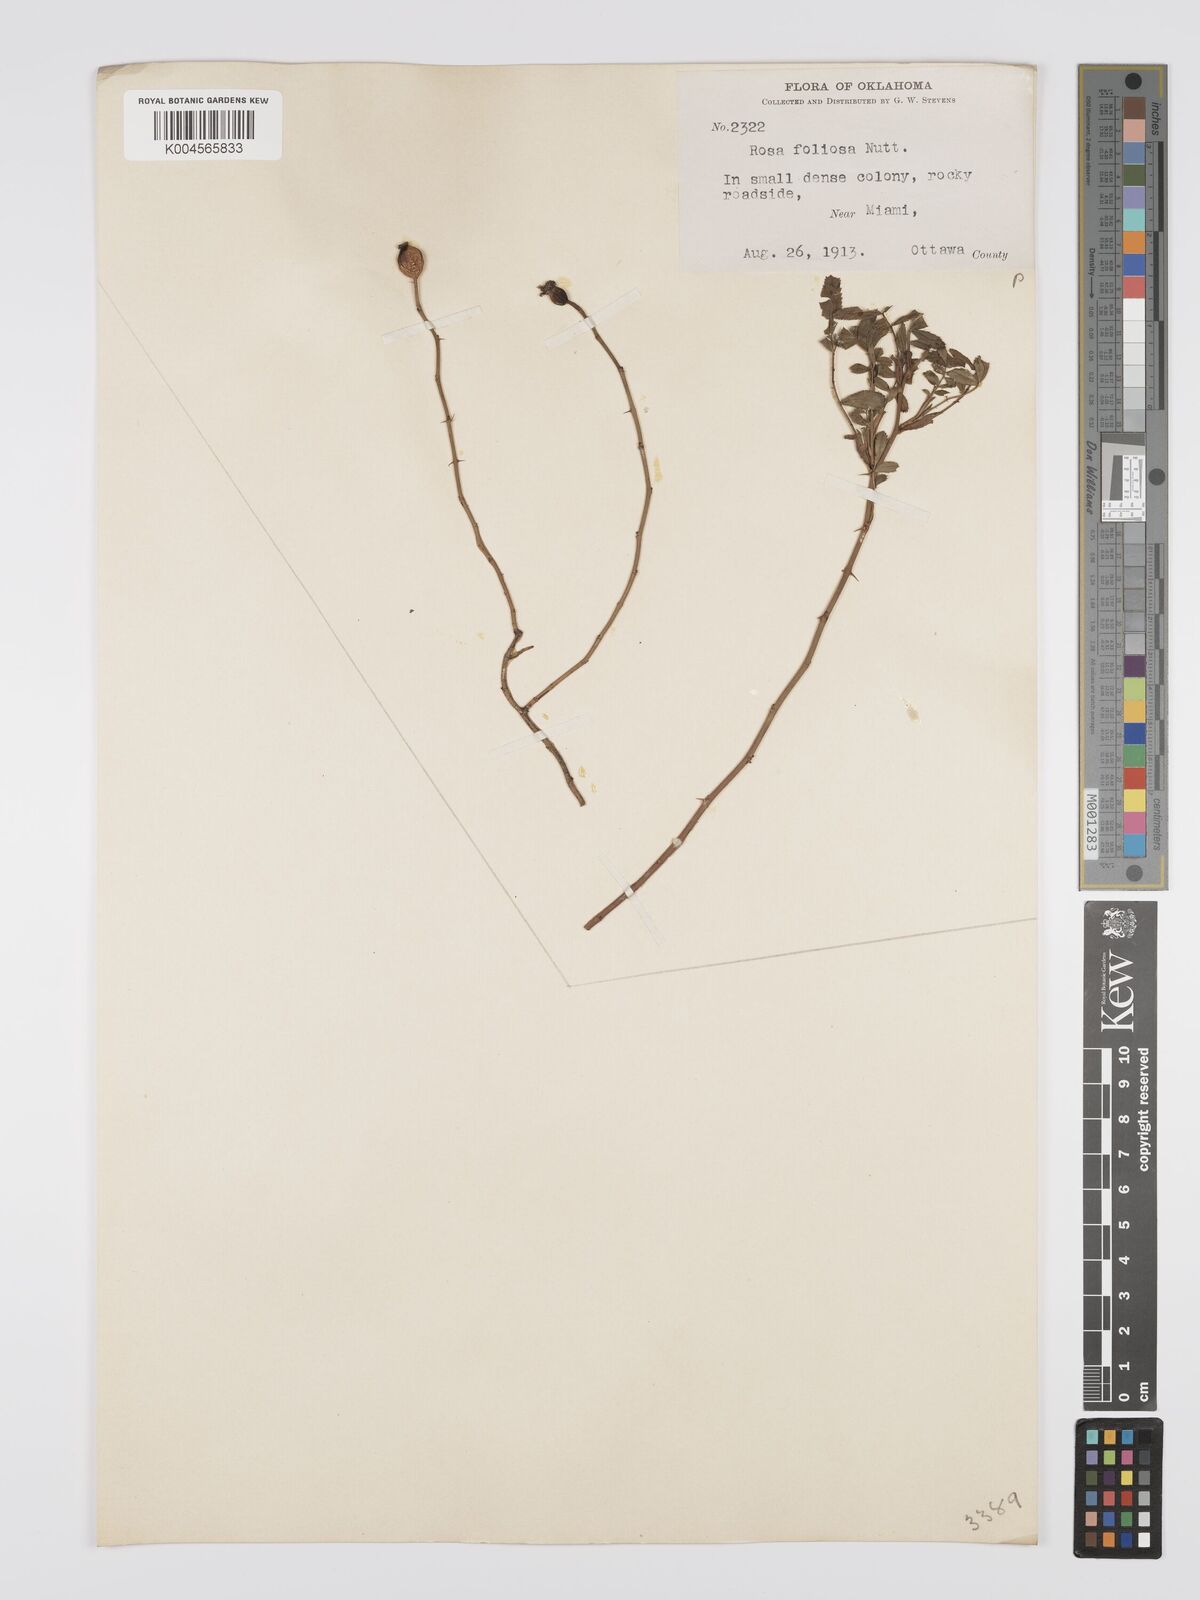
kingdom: Plantae
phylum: Tracheophyta
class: Magnoliopsida
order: Rosales
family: Rosaceae
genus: Rosa
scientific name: Rosa foliolosa
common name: White prairie rose
